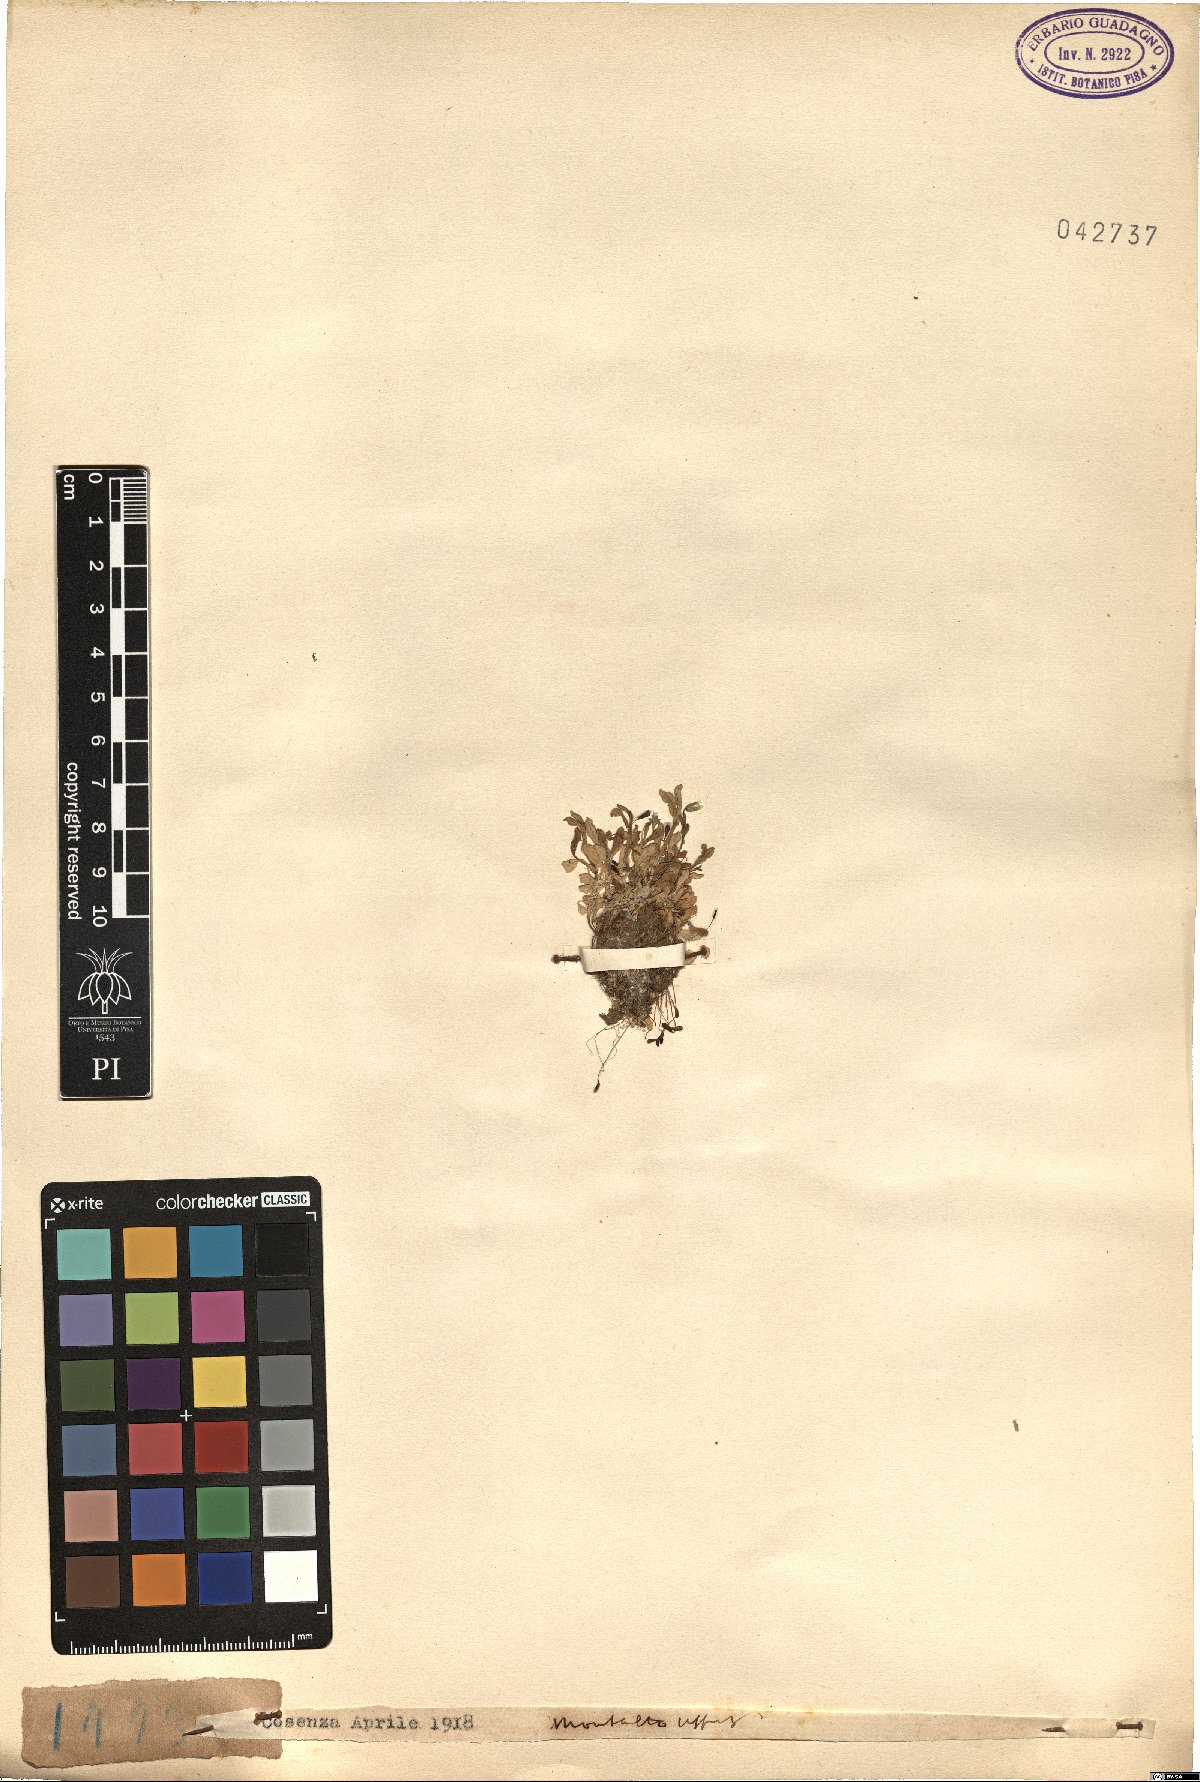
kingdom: Plantae
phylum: Tracheophyta
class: Magnoliopsida
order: Caryophyllales
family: Caryophyllaceae
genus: Cerastium
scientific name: Cerastium
